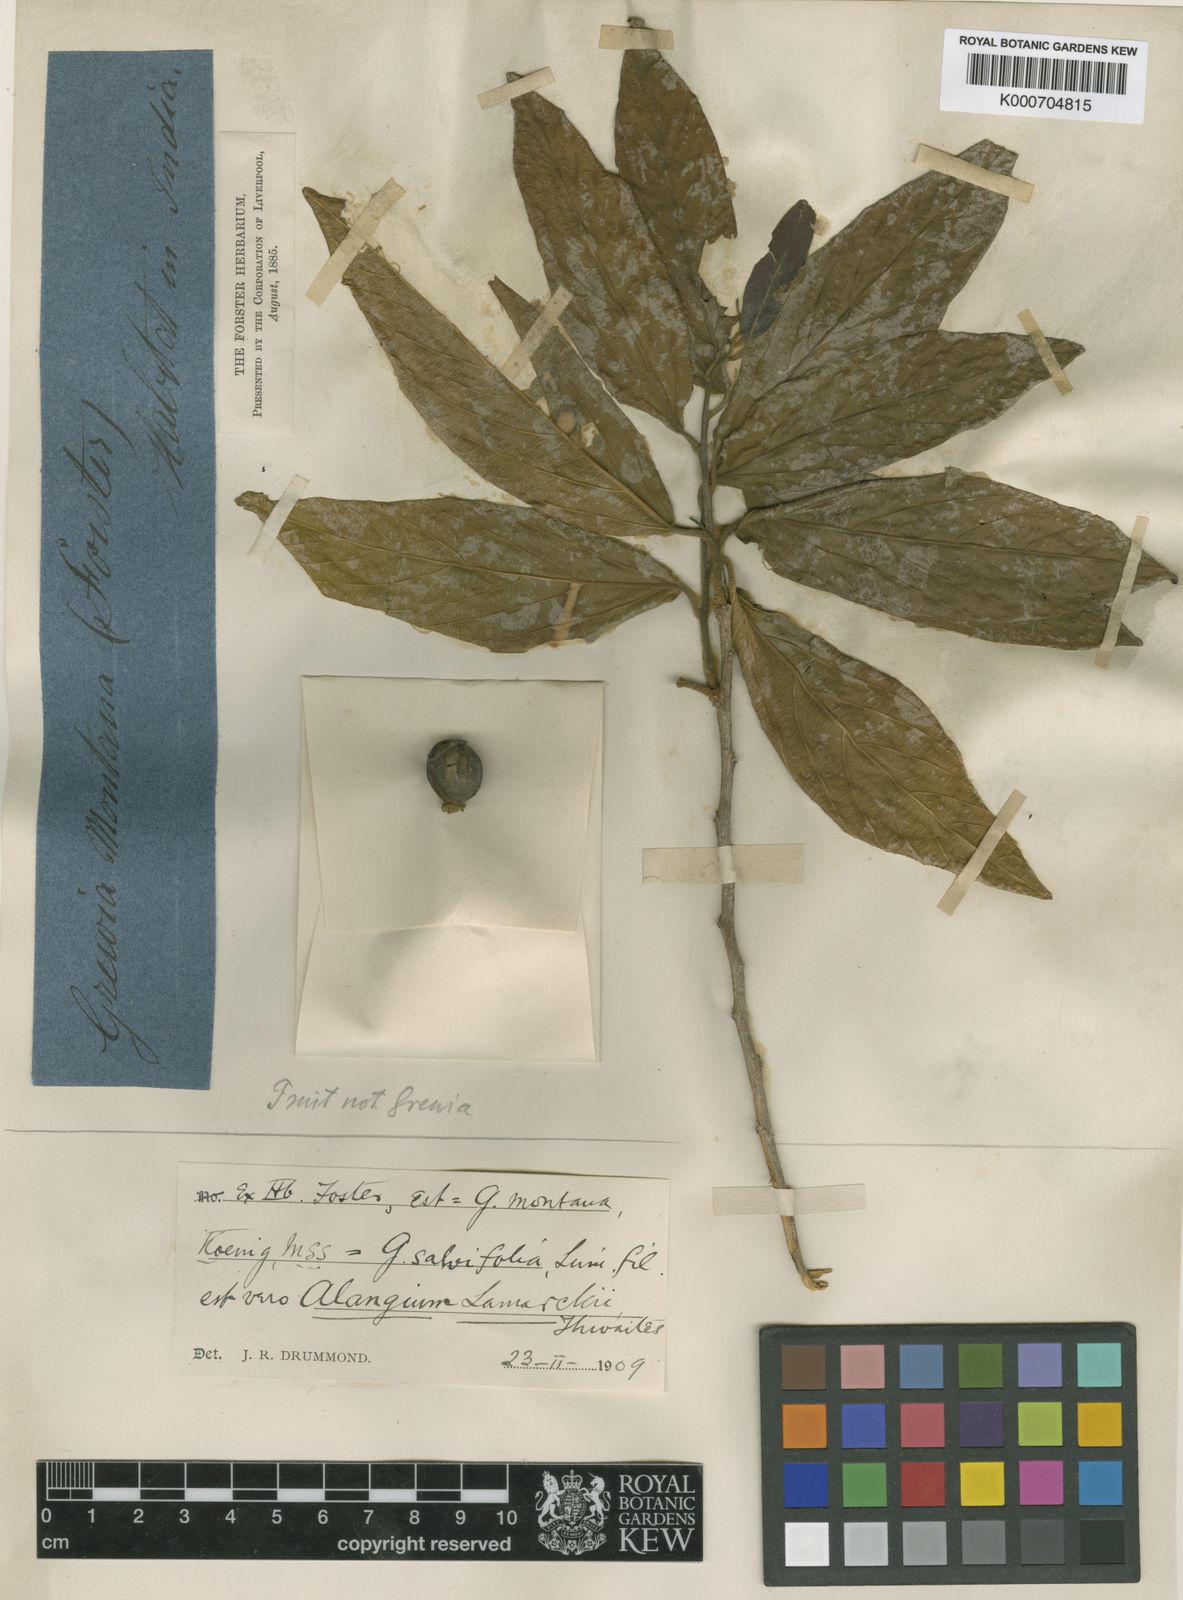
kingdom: Plantae
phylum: Tracheophyta
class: Magnoliopsida
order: Cornales
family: Cornaceae
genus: Alangium
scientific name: Alangium salviifolium
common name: Sage-leaf alangium
